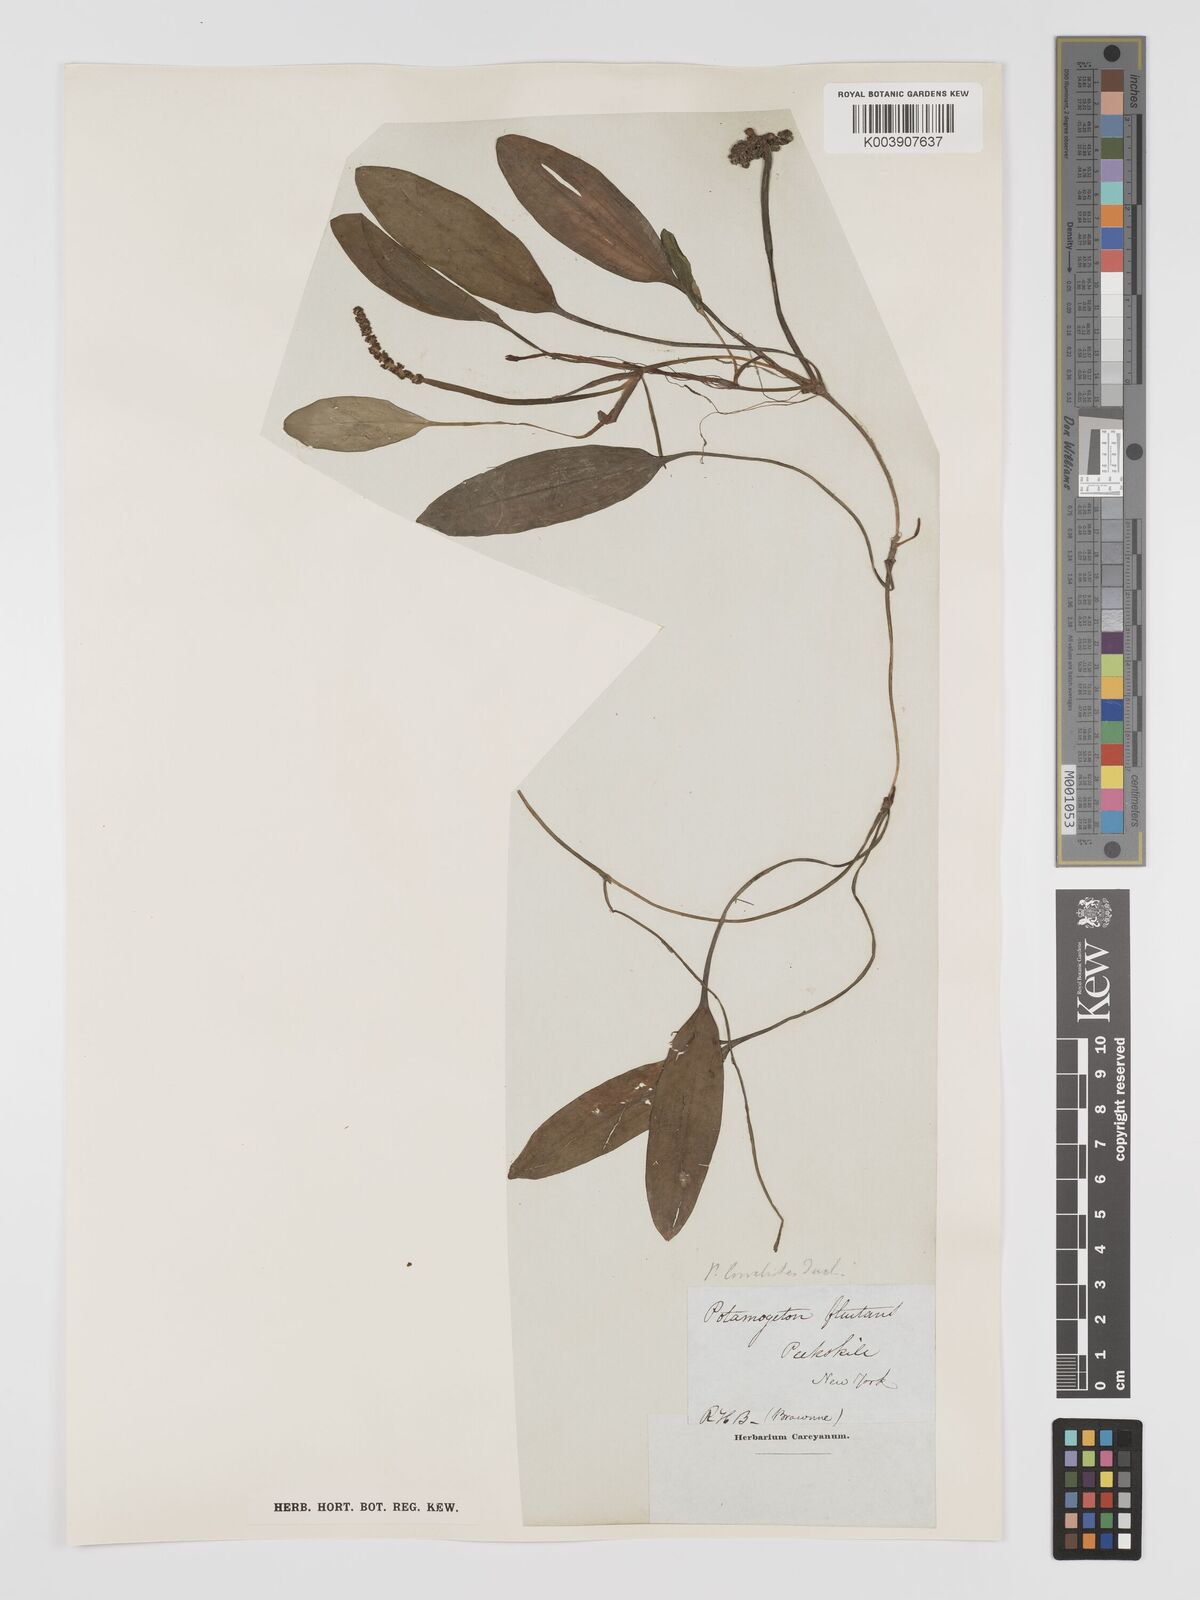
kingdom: Plantae
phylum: Tracheophyta
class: Liliopsida
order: Alismatales
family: Potamogetonaceae
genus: Potamogeton
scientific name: Potamogeton nodosus
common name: Loddon pondweed
